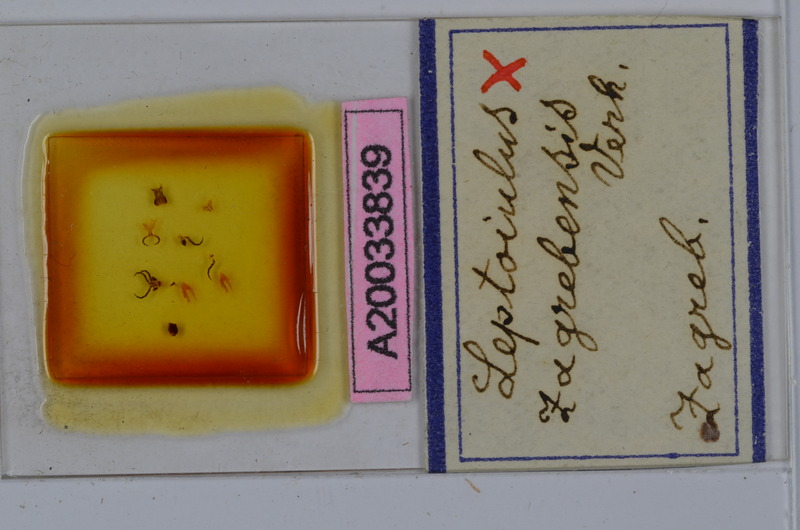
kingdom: Animalia
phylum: Arthropoda
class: Diplopoda
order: Julida
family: Julidae
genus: Leptoiulus
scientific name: Leptoiulus zagrebensis
